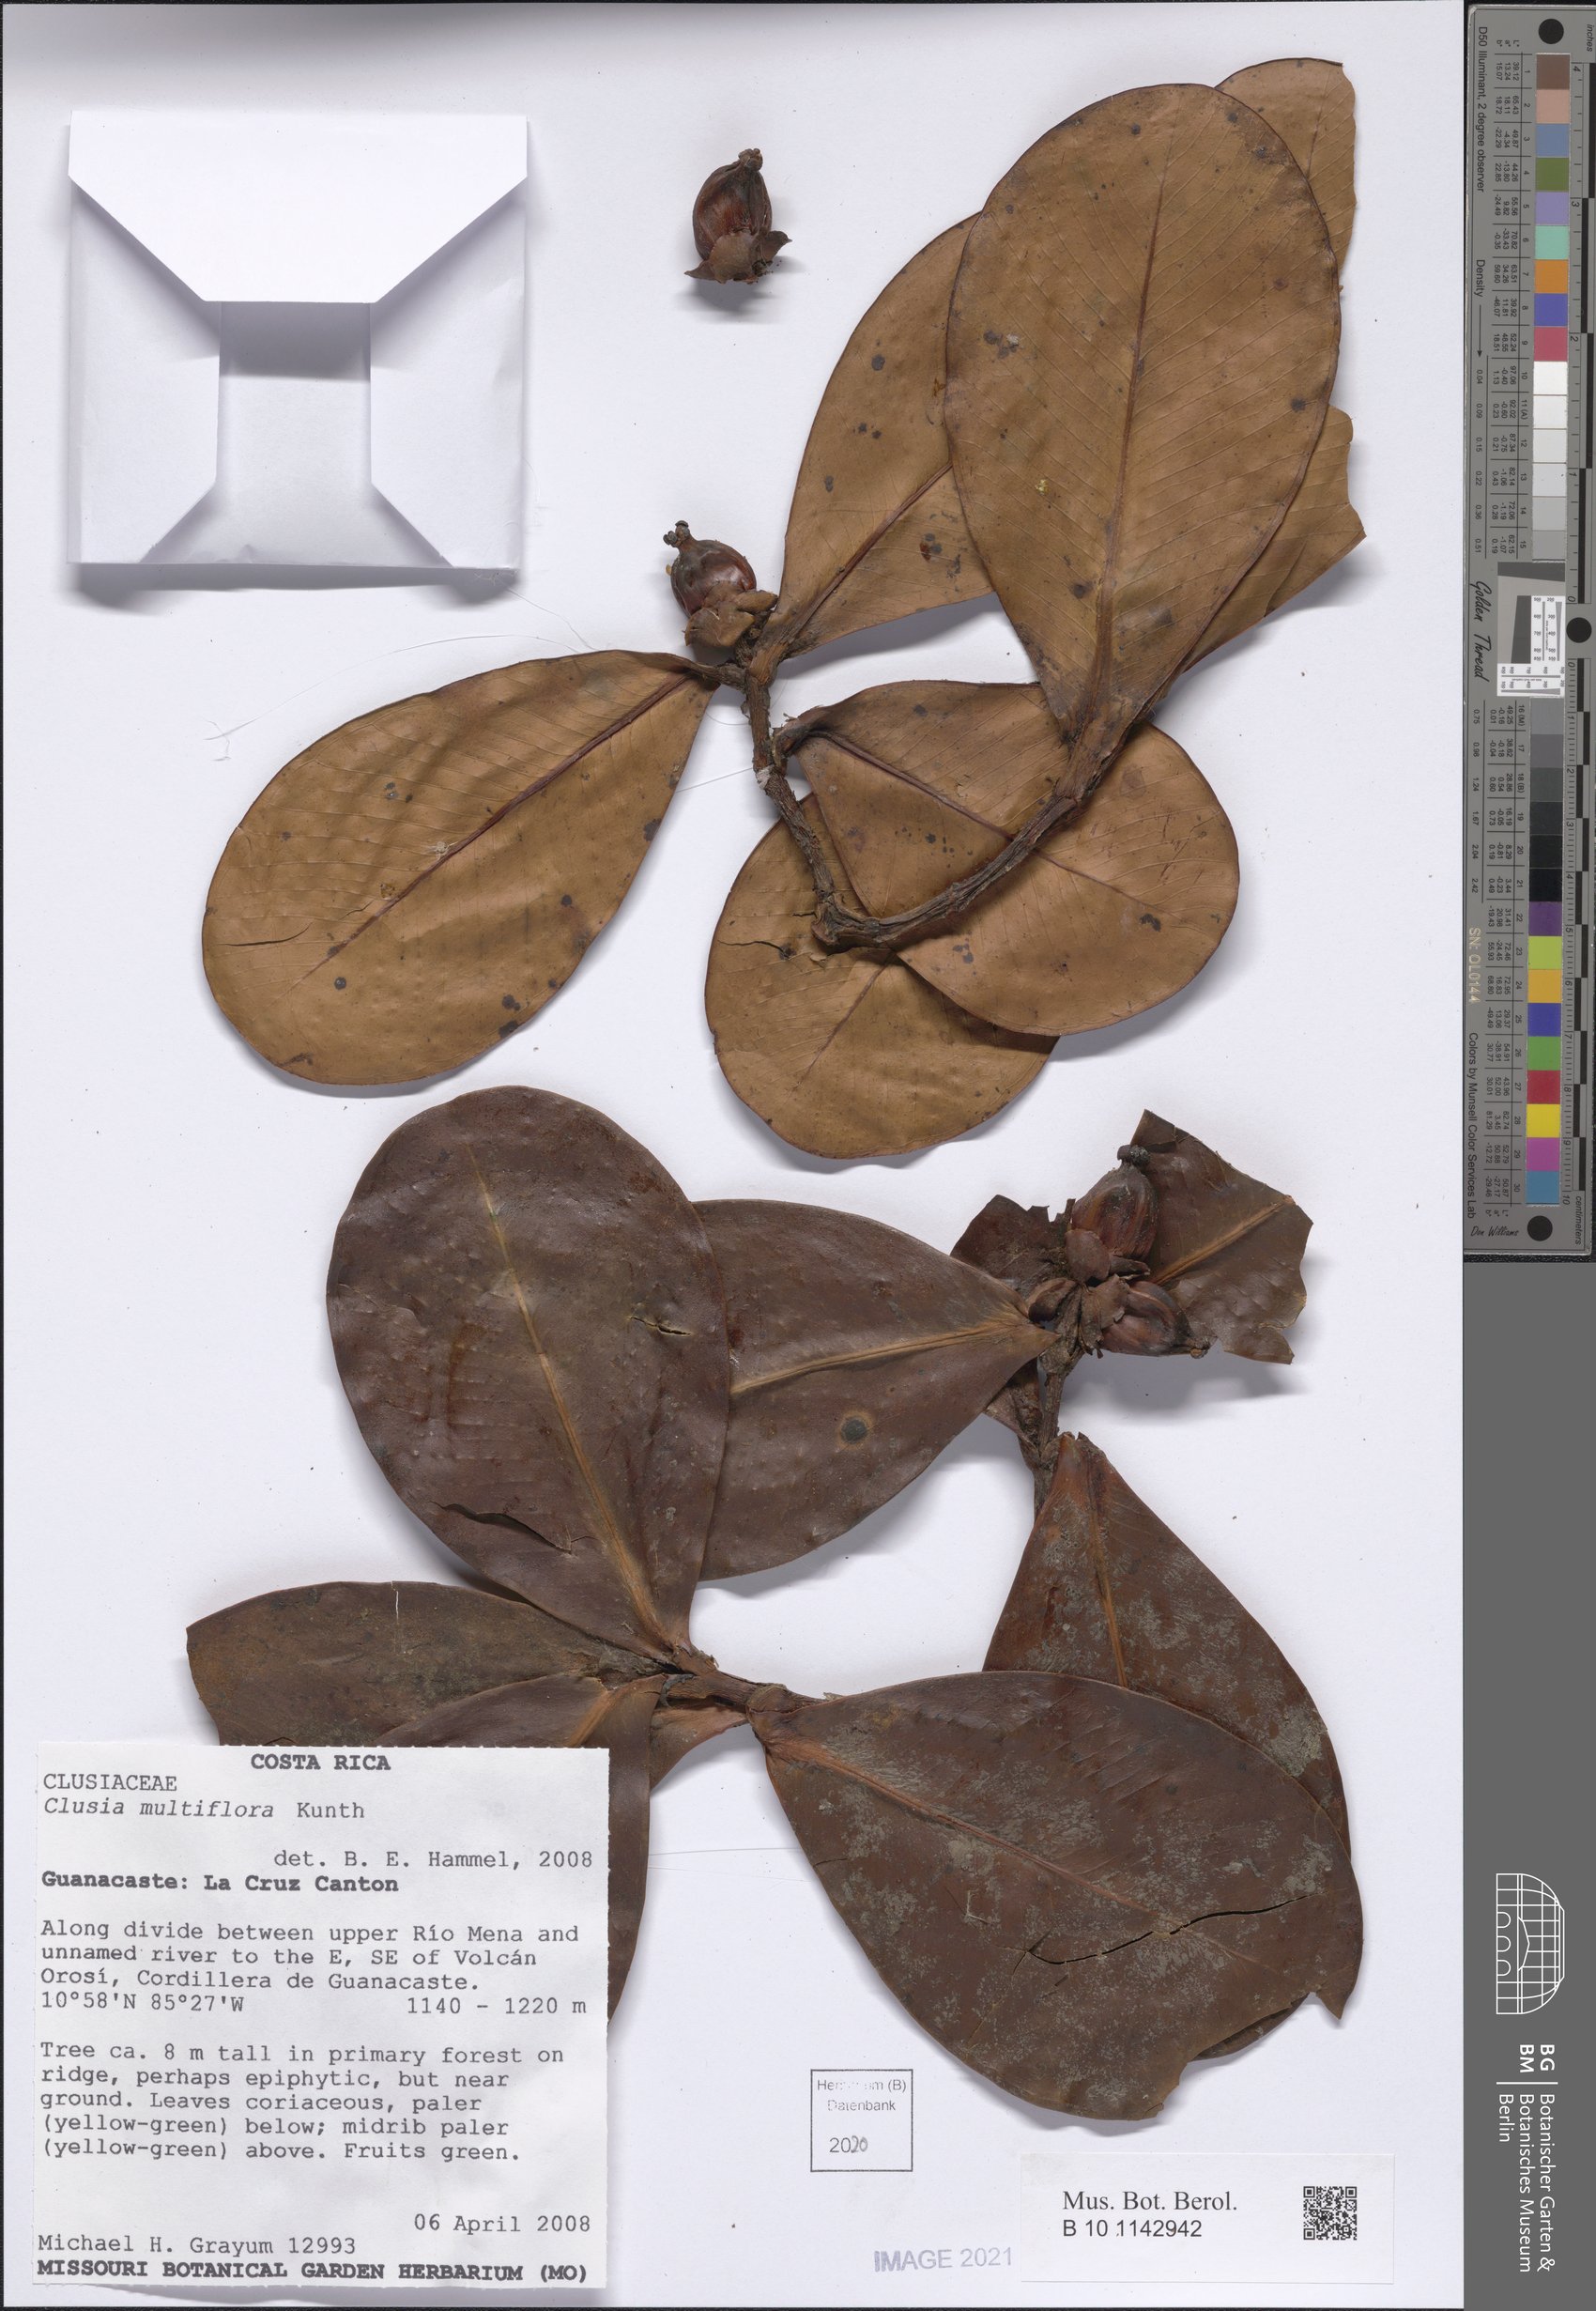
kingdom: Plantae
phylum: Tracheophyta
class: Magnoliopsida
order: Malpighiales
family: Clusiaceae
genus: Clusia
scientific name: Clusia multiflora
